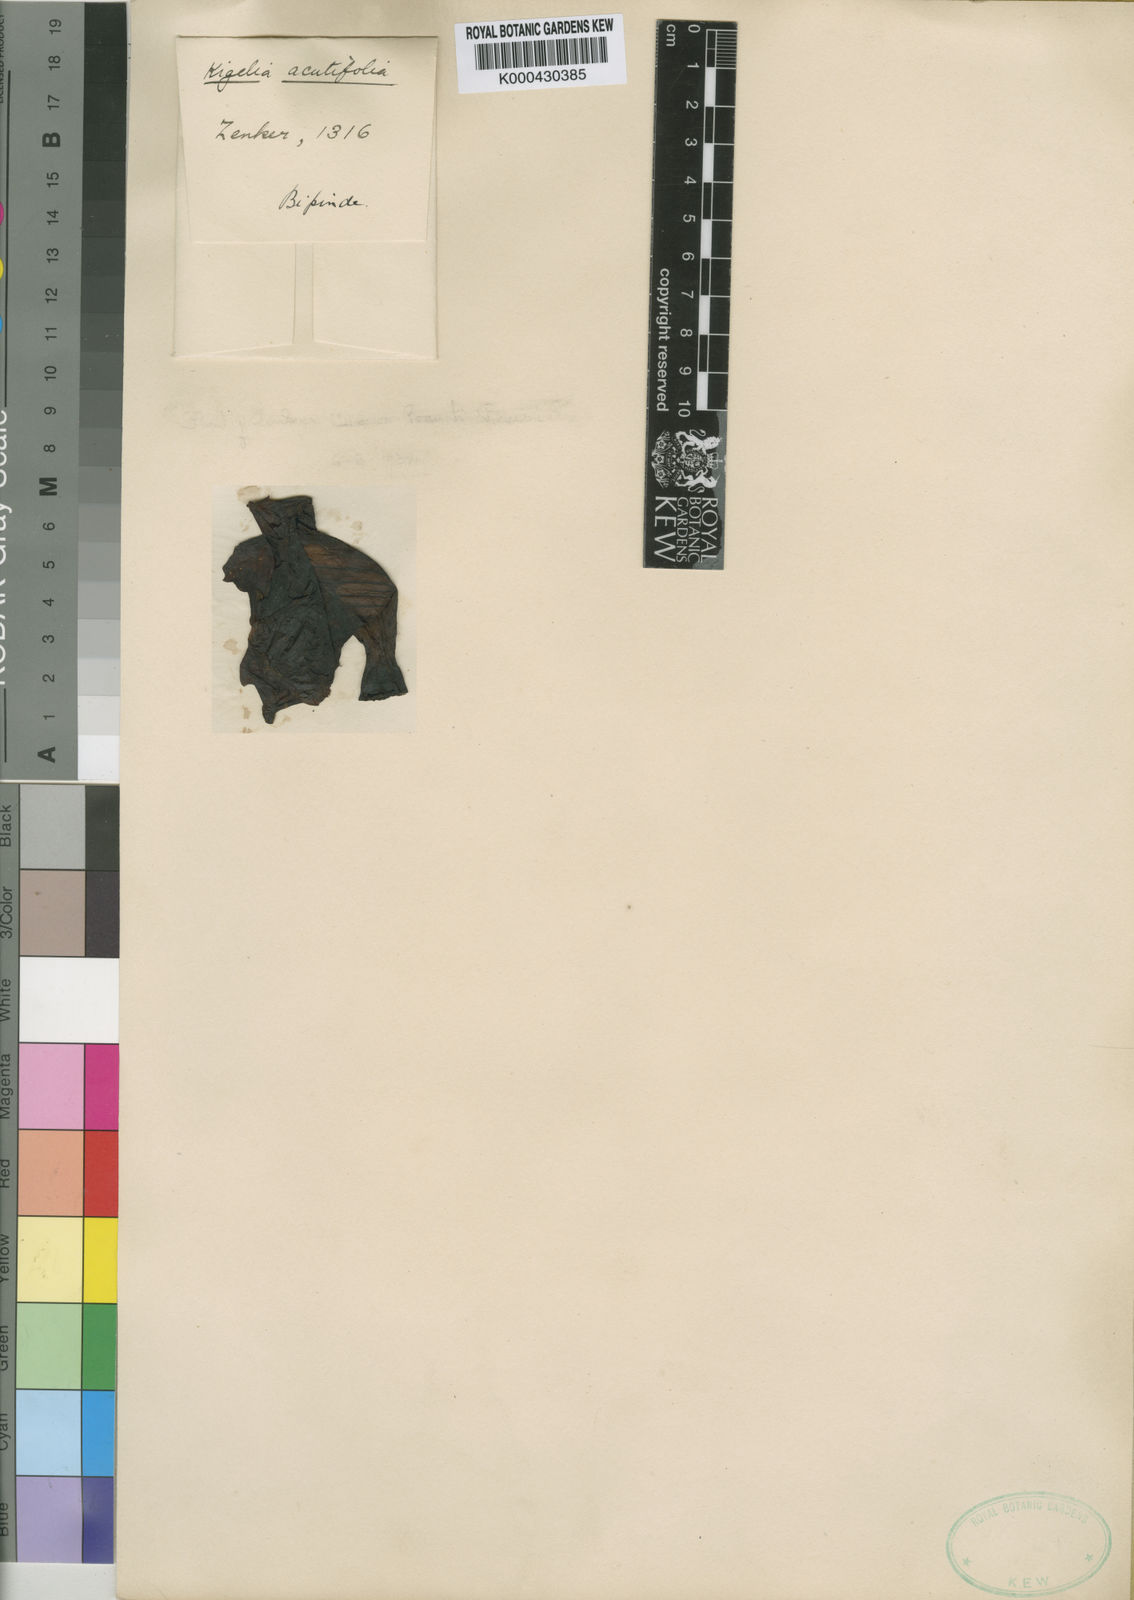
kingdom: Plantae
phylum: Tracheophyta
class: Magnoliopsida
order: Lamiales
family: Bignoniaceae
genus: Kigelia
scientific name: Kigelia africana
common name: Sausage tree
